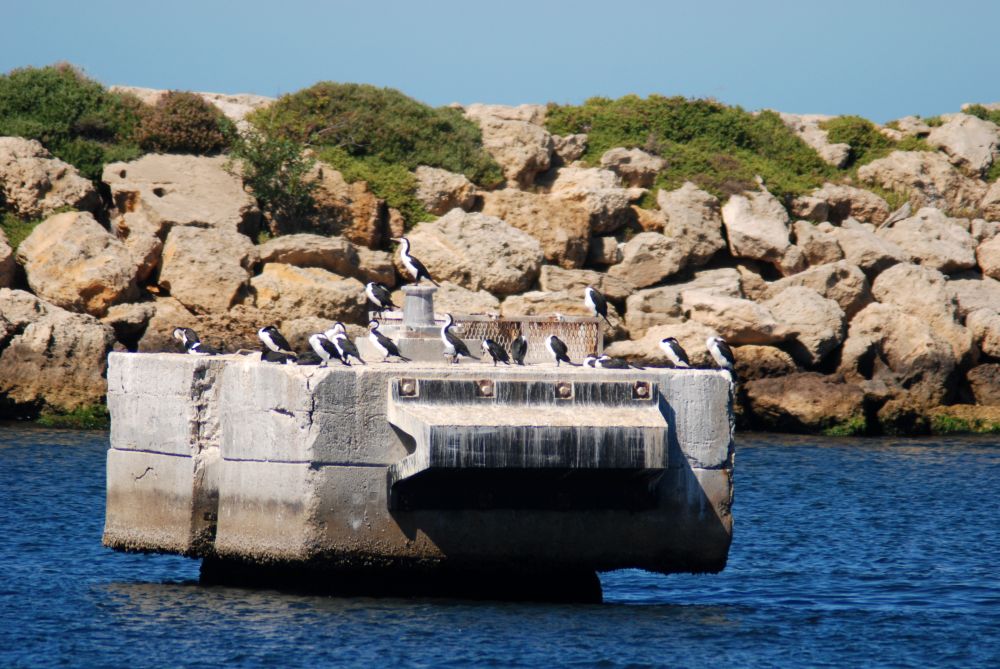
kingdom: Animalia
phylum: Chordata
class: Aves
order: Suliformes
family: Phalacrocoracidae
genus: Phalacrocorax
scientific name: Phalacrocorax varius
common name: Pied cormorant
